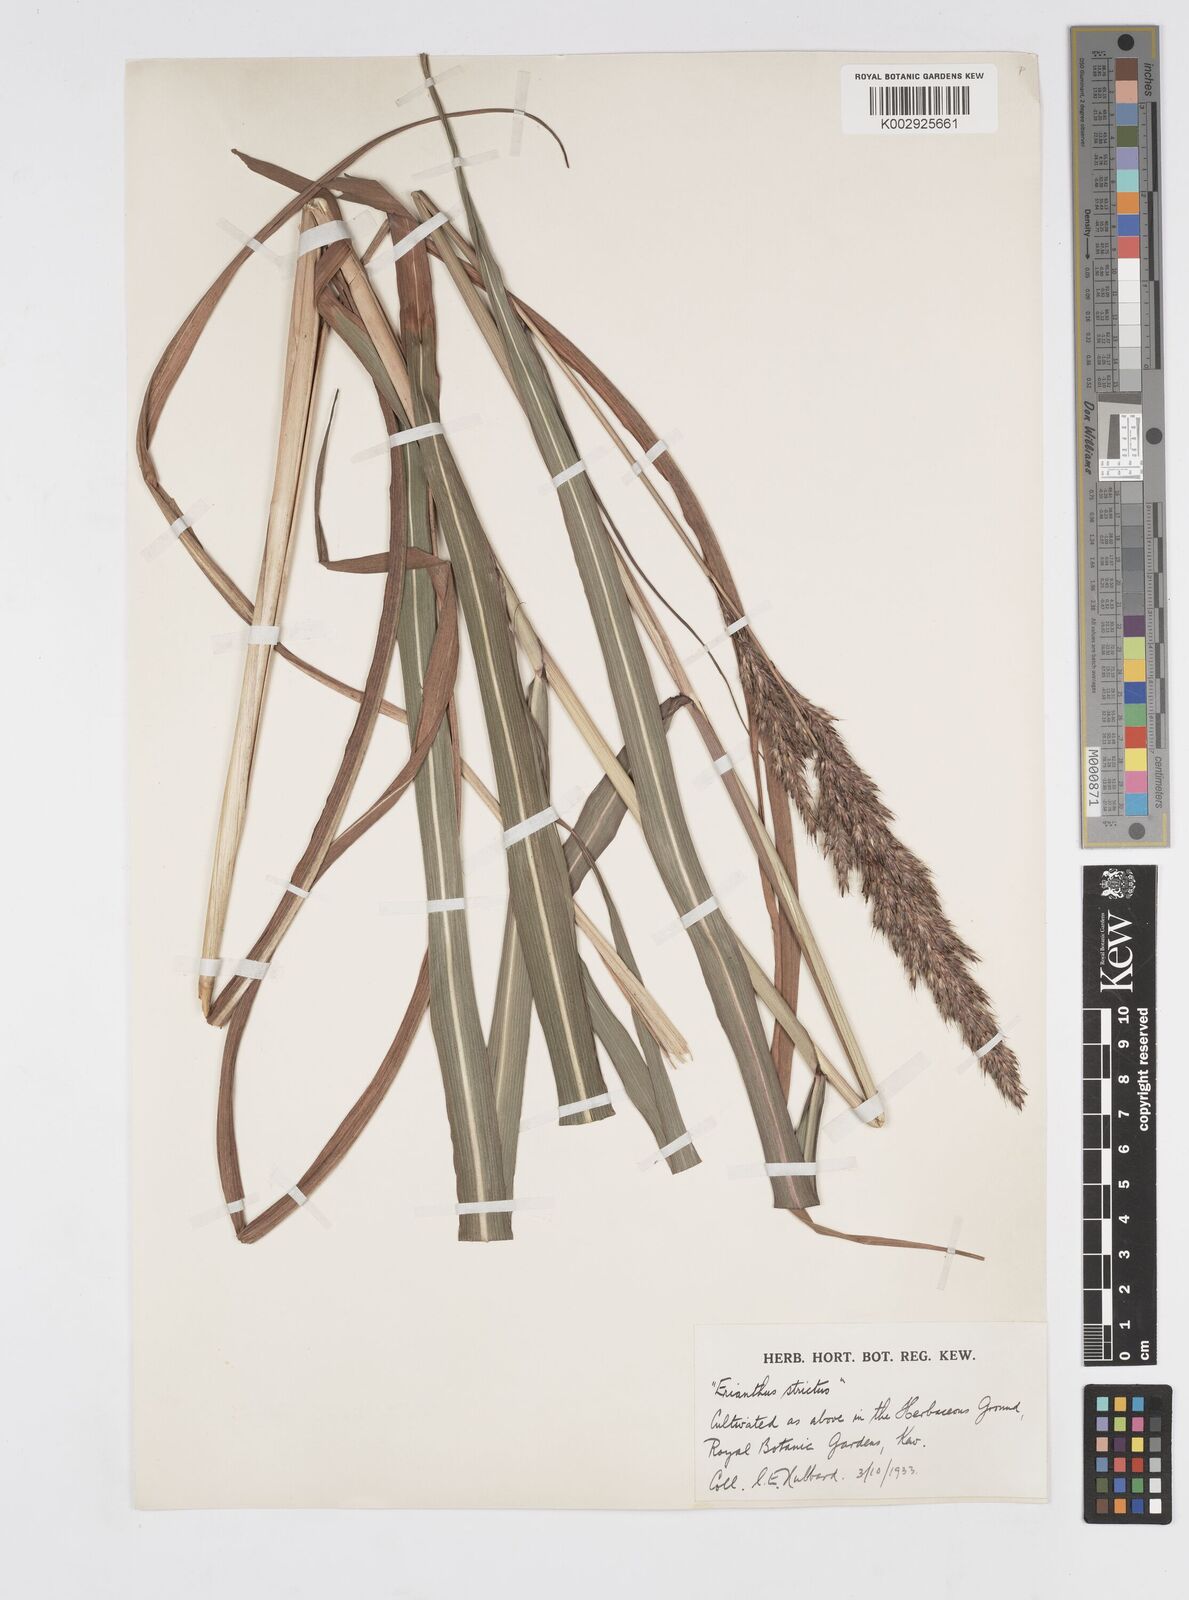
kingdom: Plantae
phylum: Tracheophyta
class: Liliopsida
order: Poales
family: Poaceae
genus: Tripidium
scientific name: Tripidium strictum
